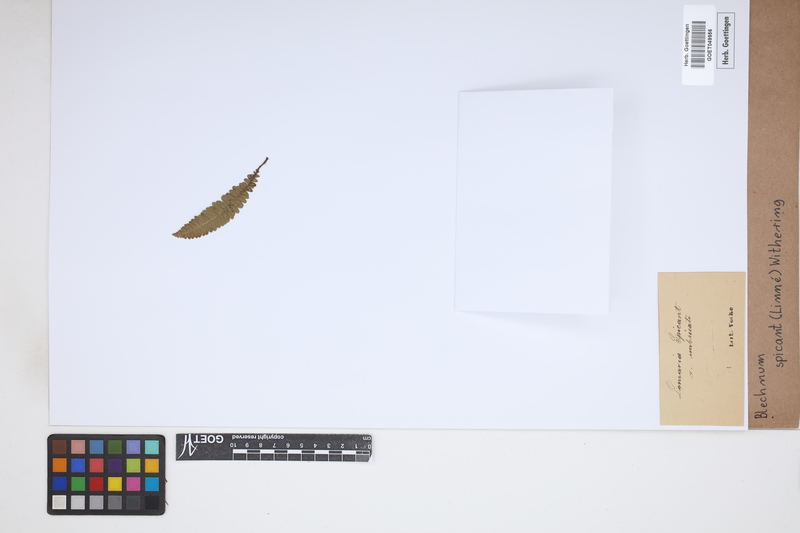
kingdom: Plantae
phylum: Tracheophyta
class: Polypodiopsida
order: Polypodiales
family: Blechnaceae
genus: Struthiopteris
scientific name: Struthiopteris spicant
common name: Deer fern
